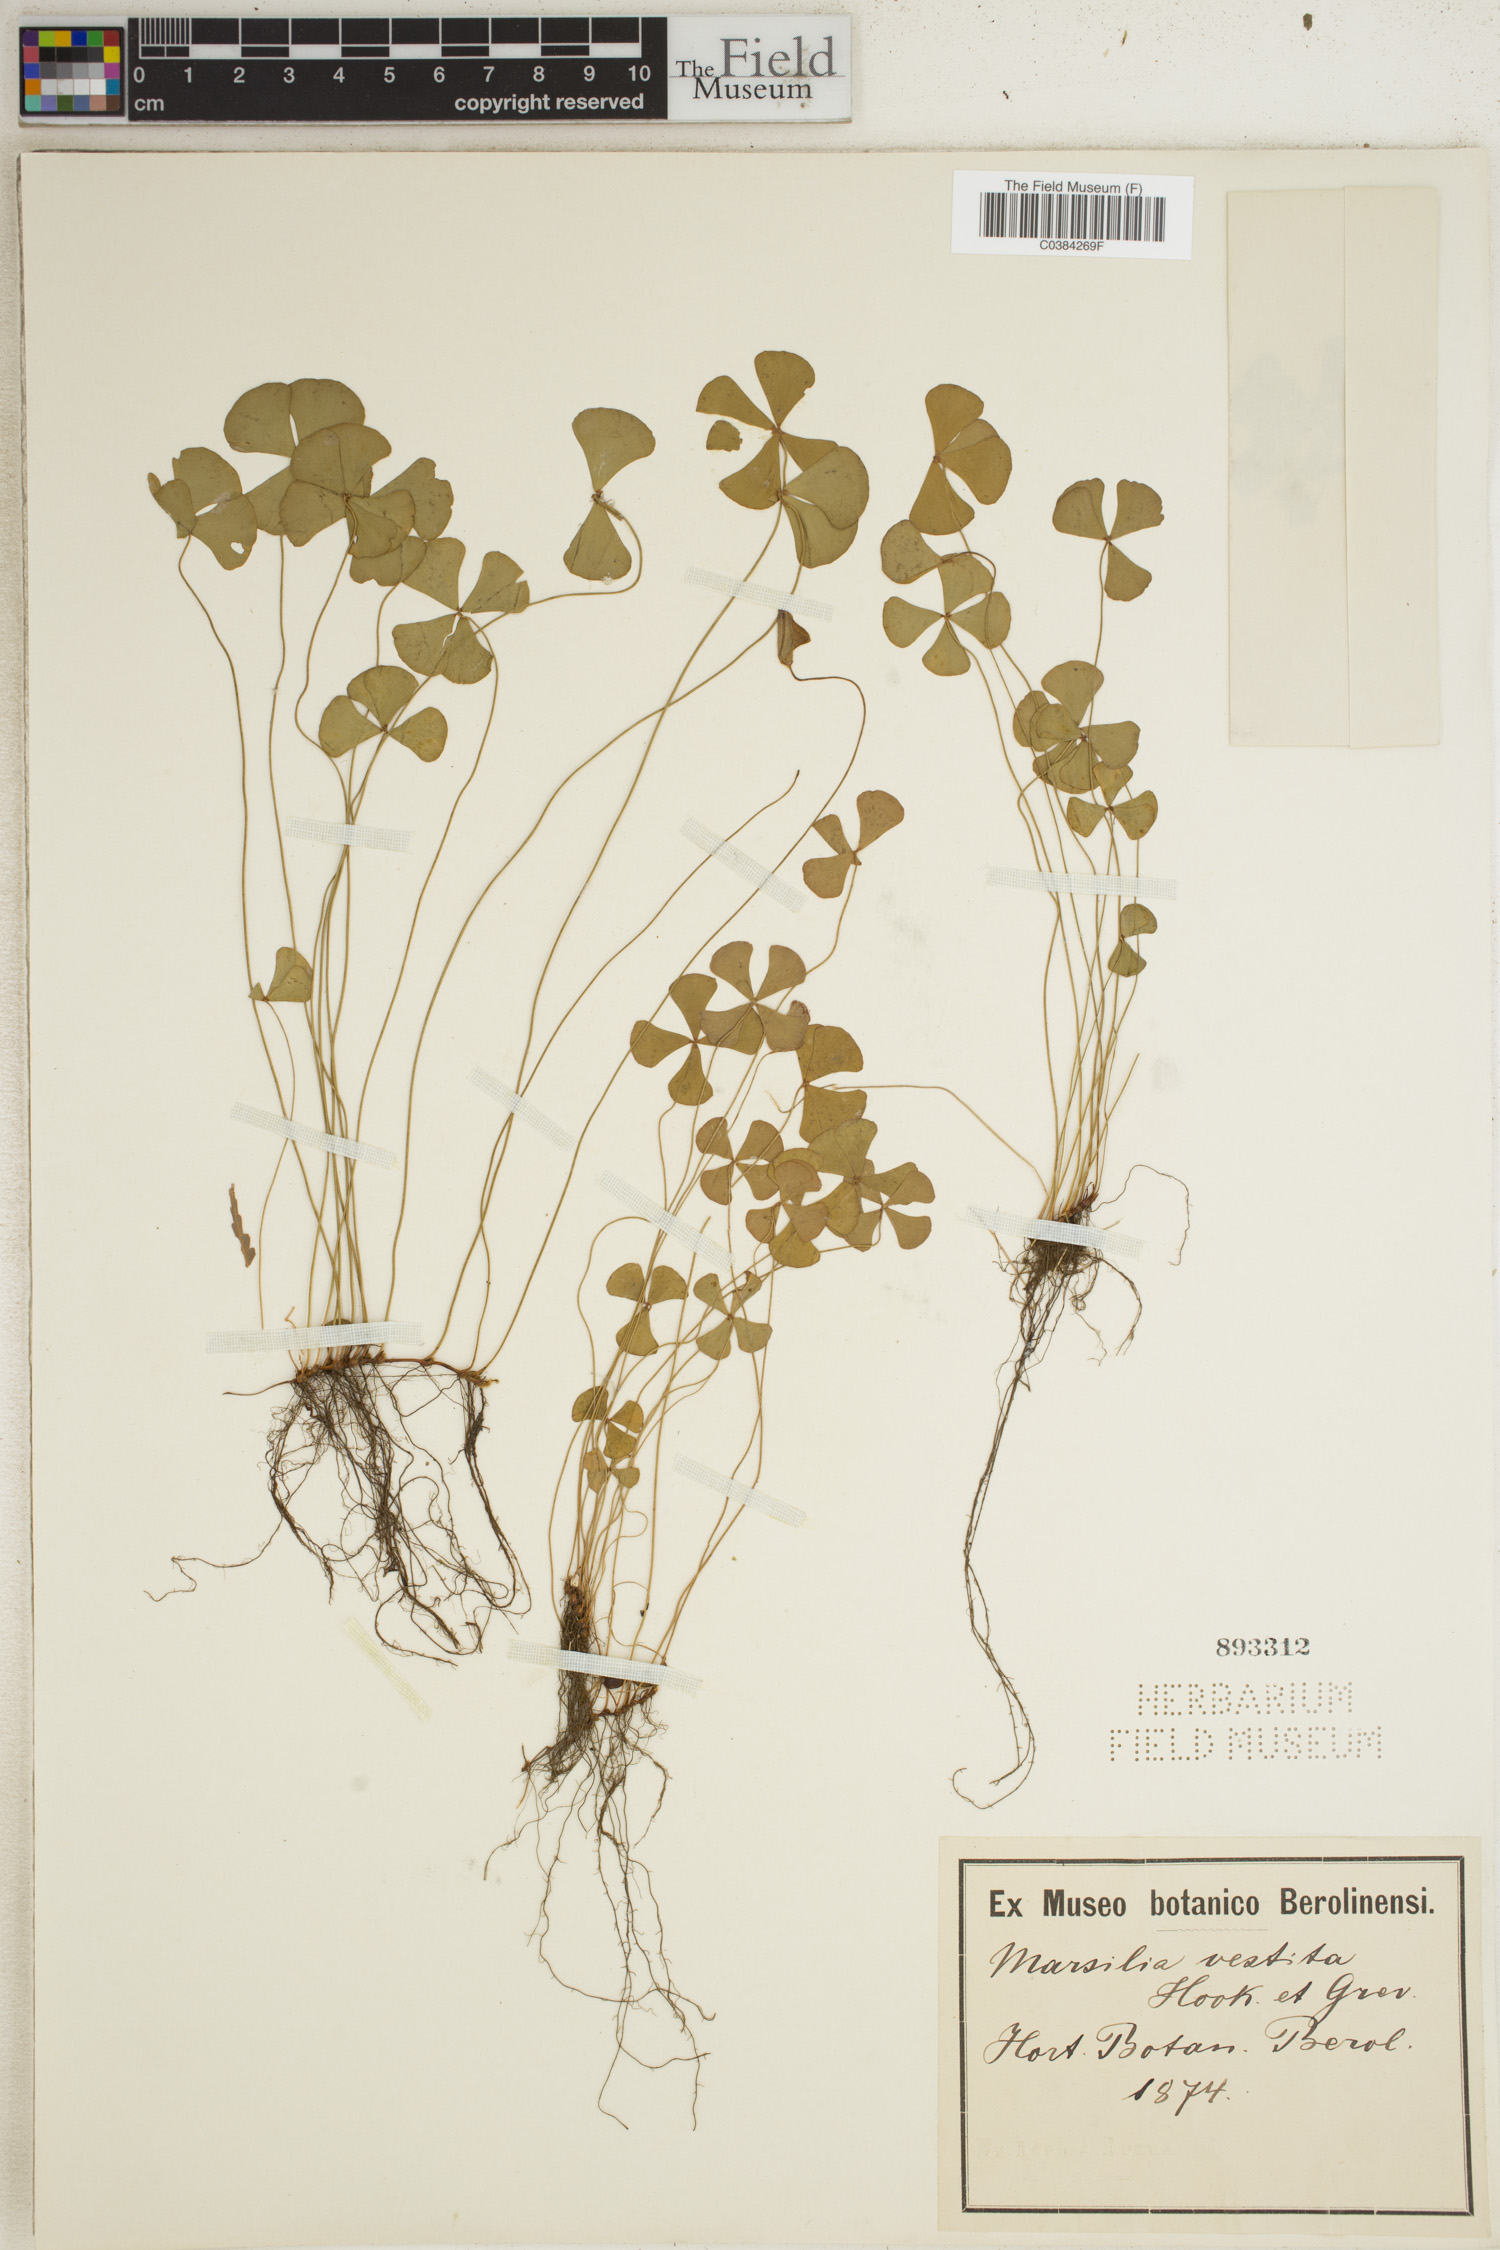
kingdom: Plantae
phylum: Tracheophyta
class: Polypodiopsida
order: Salviniales
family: Marsileaceae
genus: Marsilea
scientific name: Marsilea vestita
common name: Hooked-pepperwort
